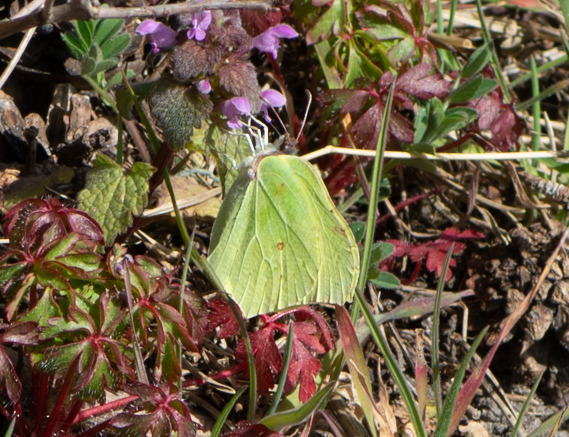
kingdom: Animalia
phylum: Arthropoda
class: Insecta
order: Lepidoptera
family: Pieridae
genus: Gonepteryx
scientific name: Gonepteryx rhamni
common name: Citronsommerfugl
